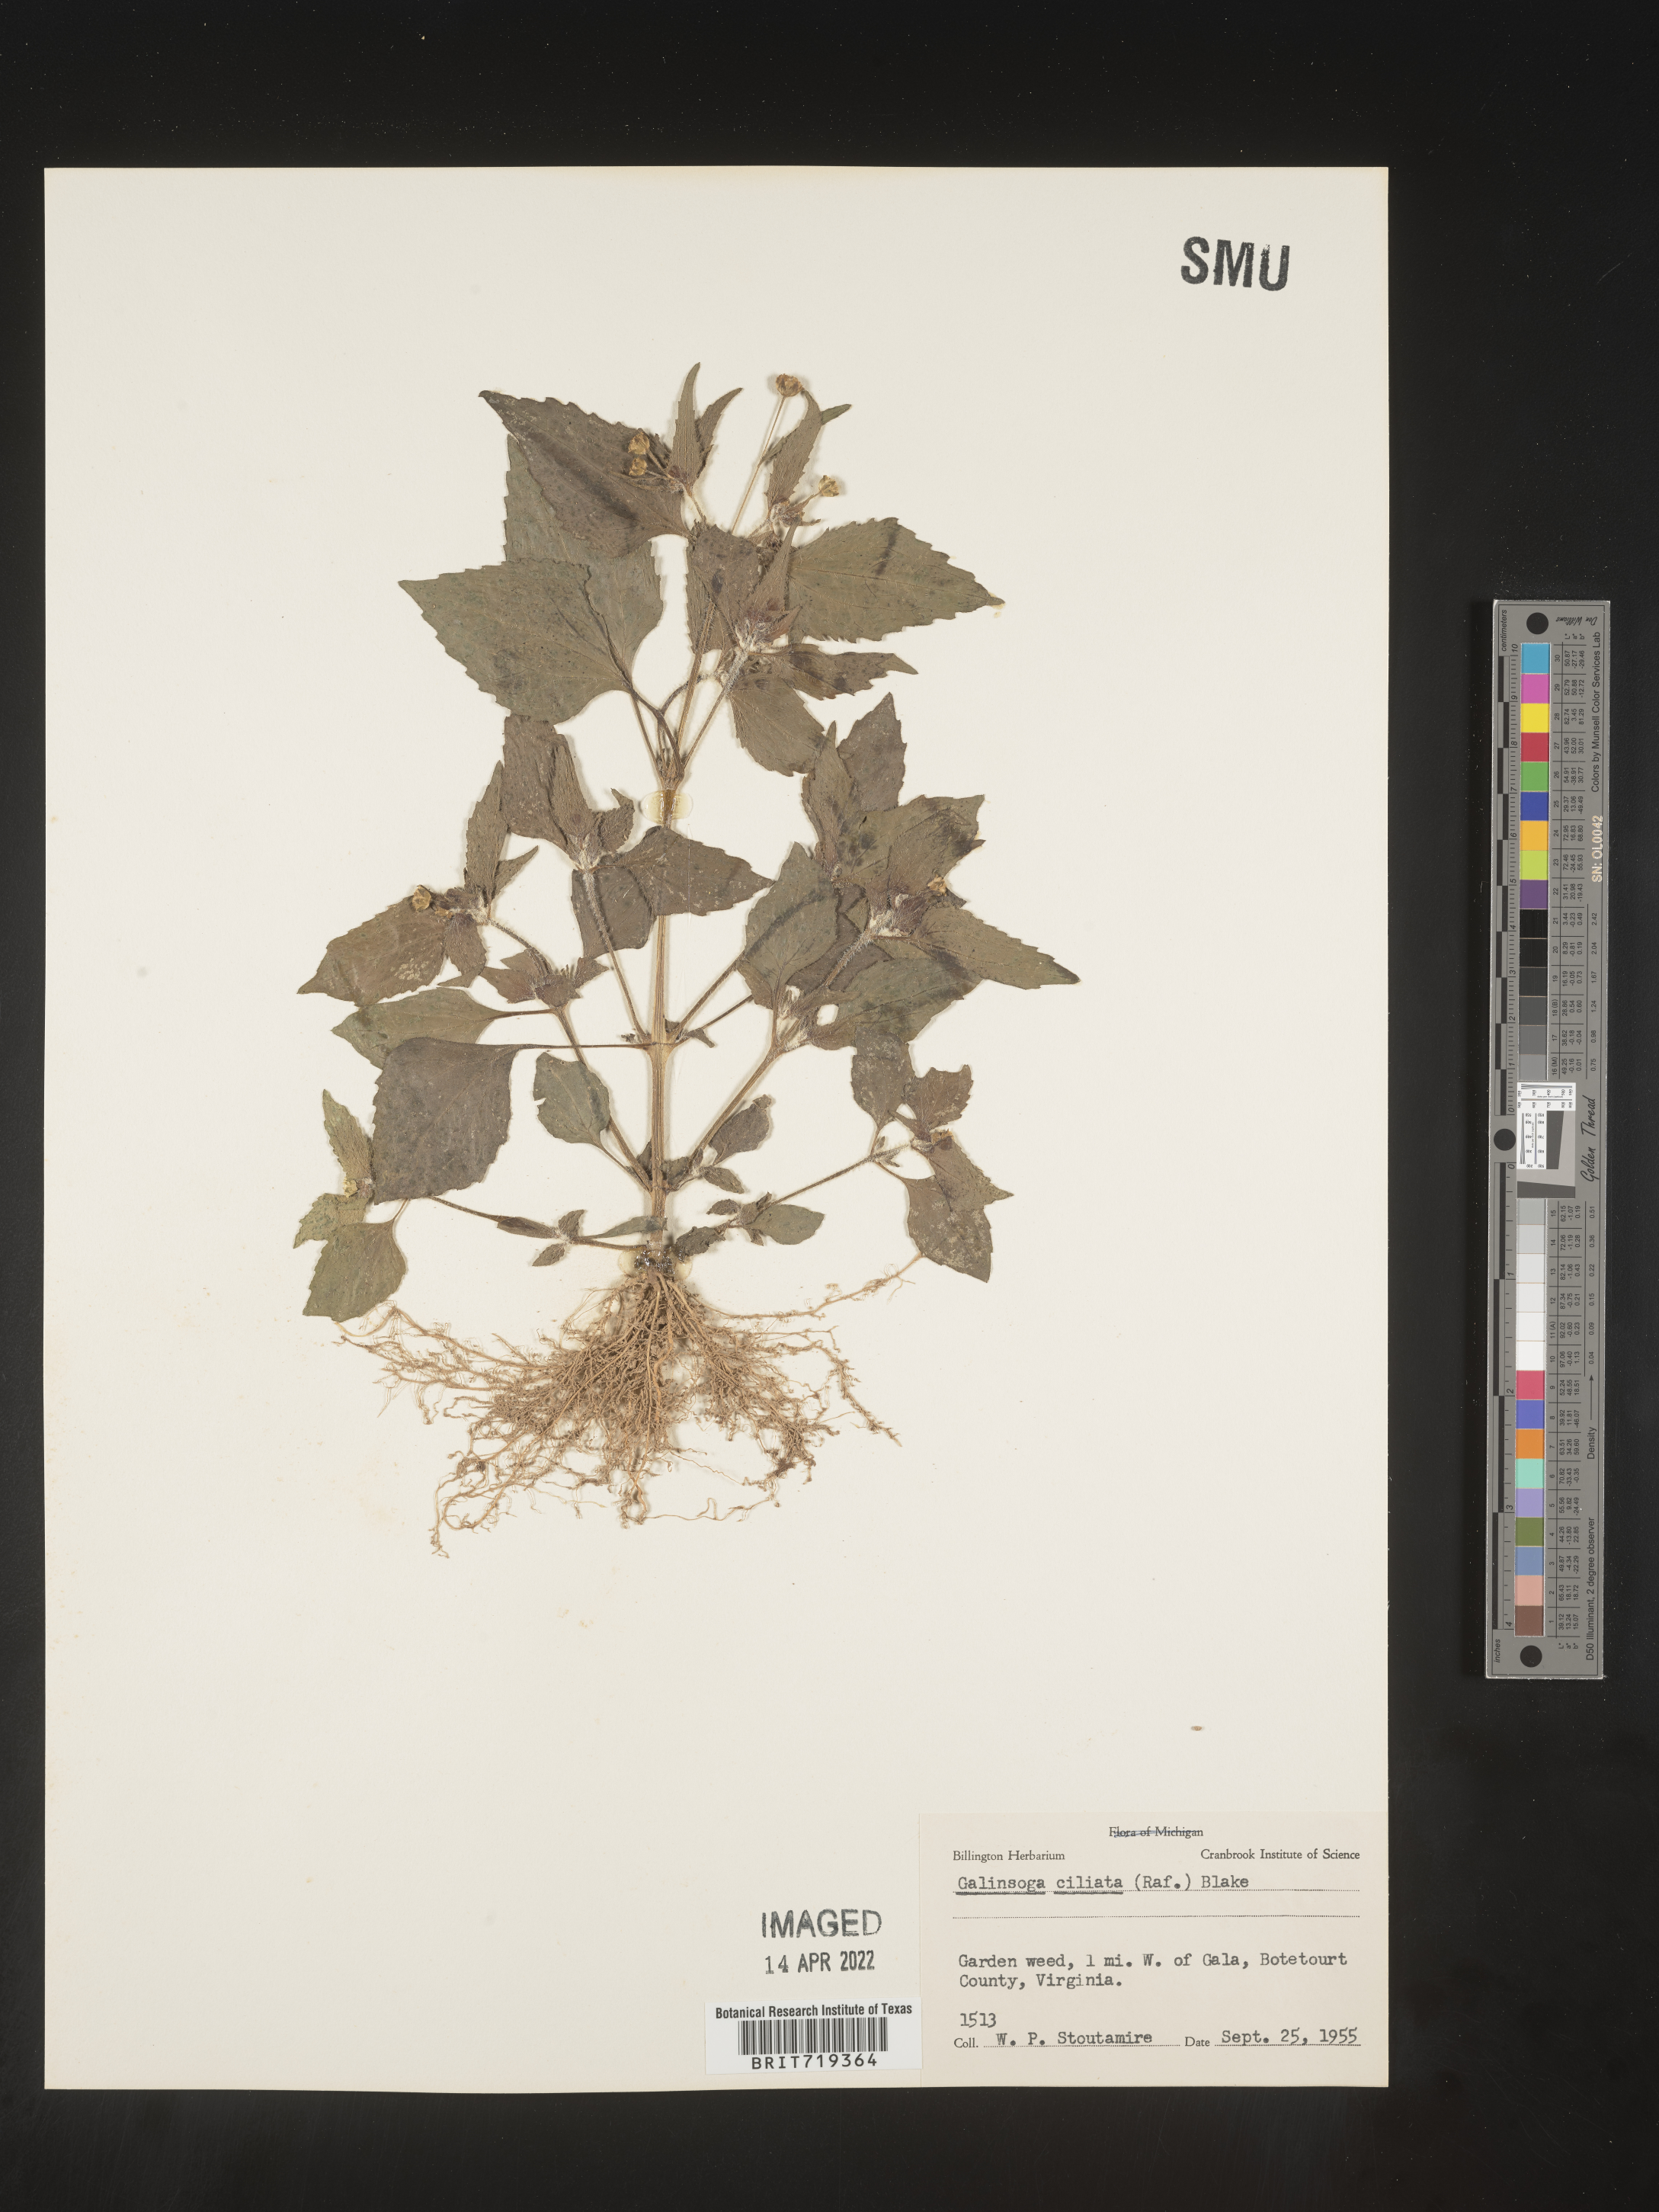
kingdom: Plantae
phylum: Tracheophyta
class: Magnoliopsida
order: Asterales
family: Asteraceae
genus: Galinsoga
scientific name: Galinsoga quadriradiata
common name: Shaggy soldier
